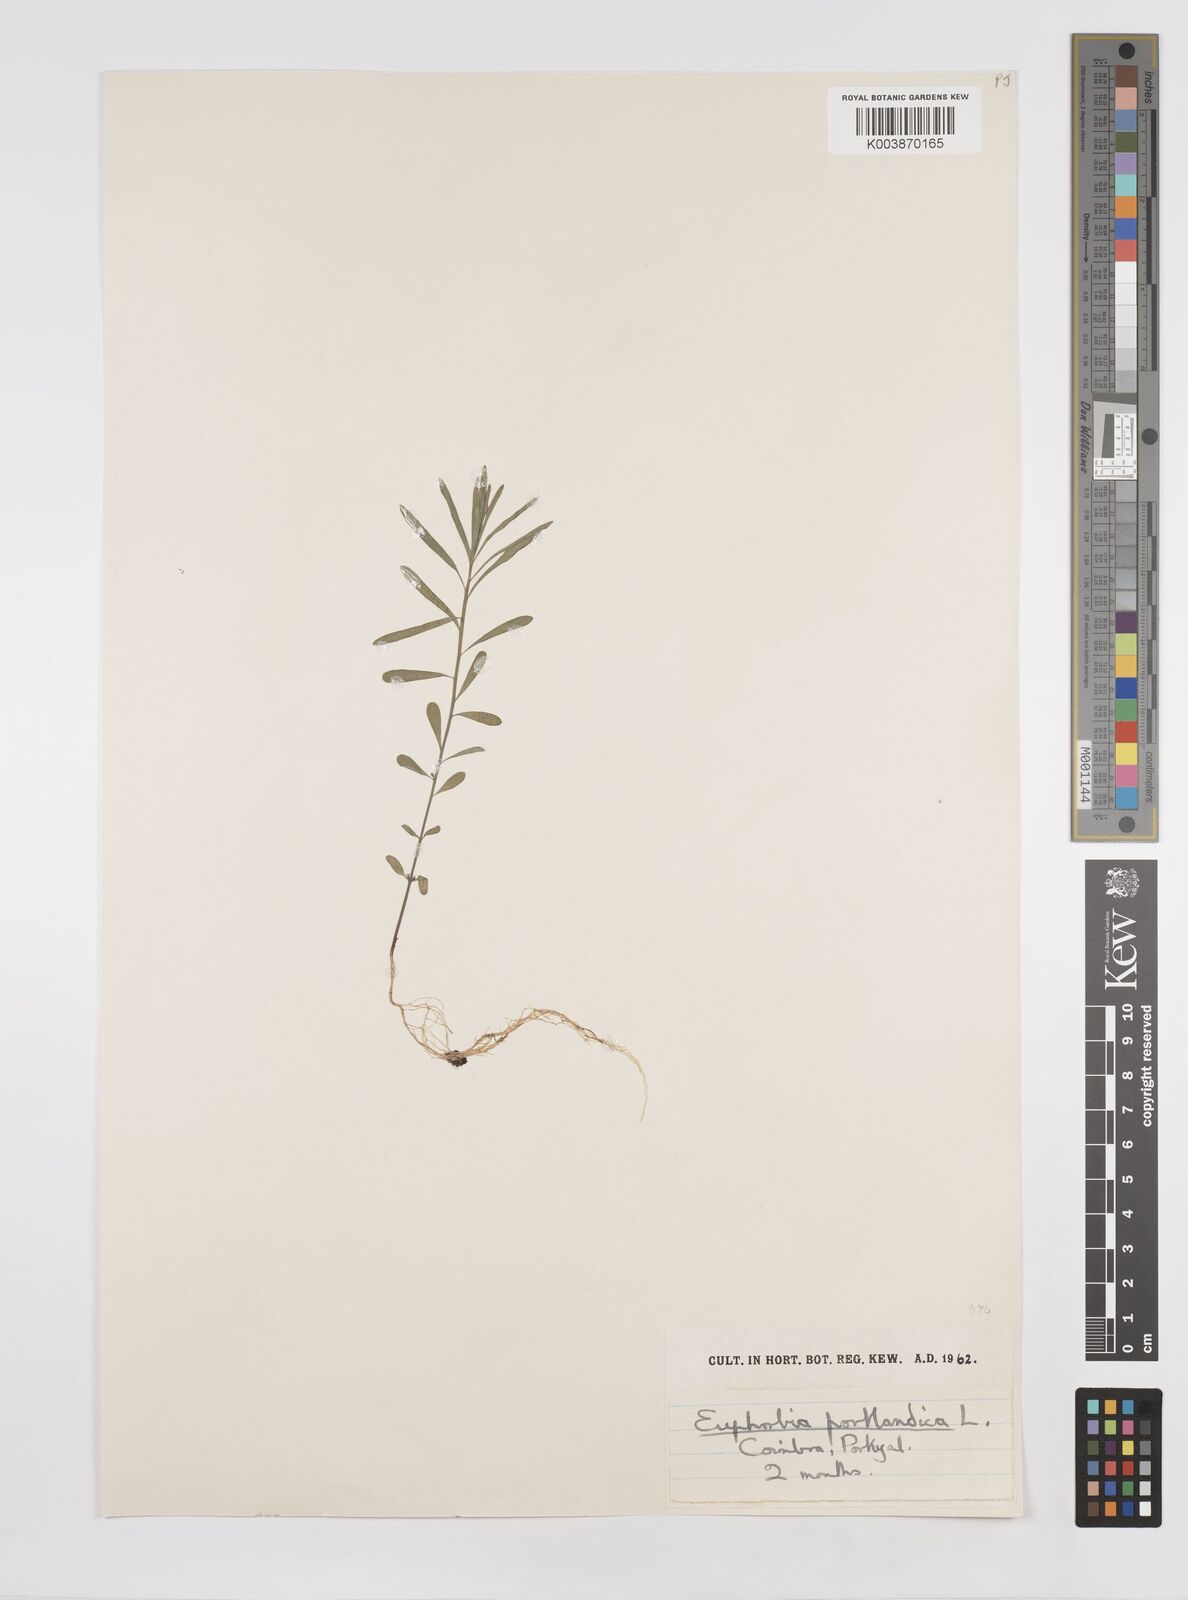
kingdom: Plantae
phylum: Tracheophyta
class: Magnoliopsida
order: Malpighiales
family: Euphorbiaceae
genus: Euphorbia
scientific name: Euphorbia portlandica
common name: Portland spurge
